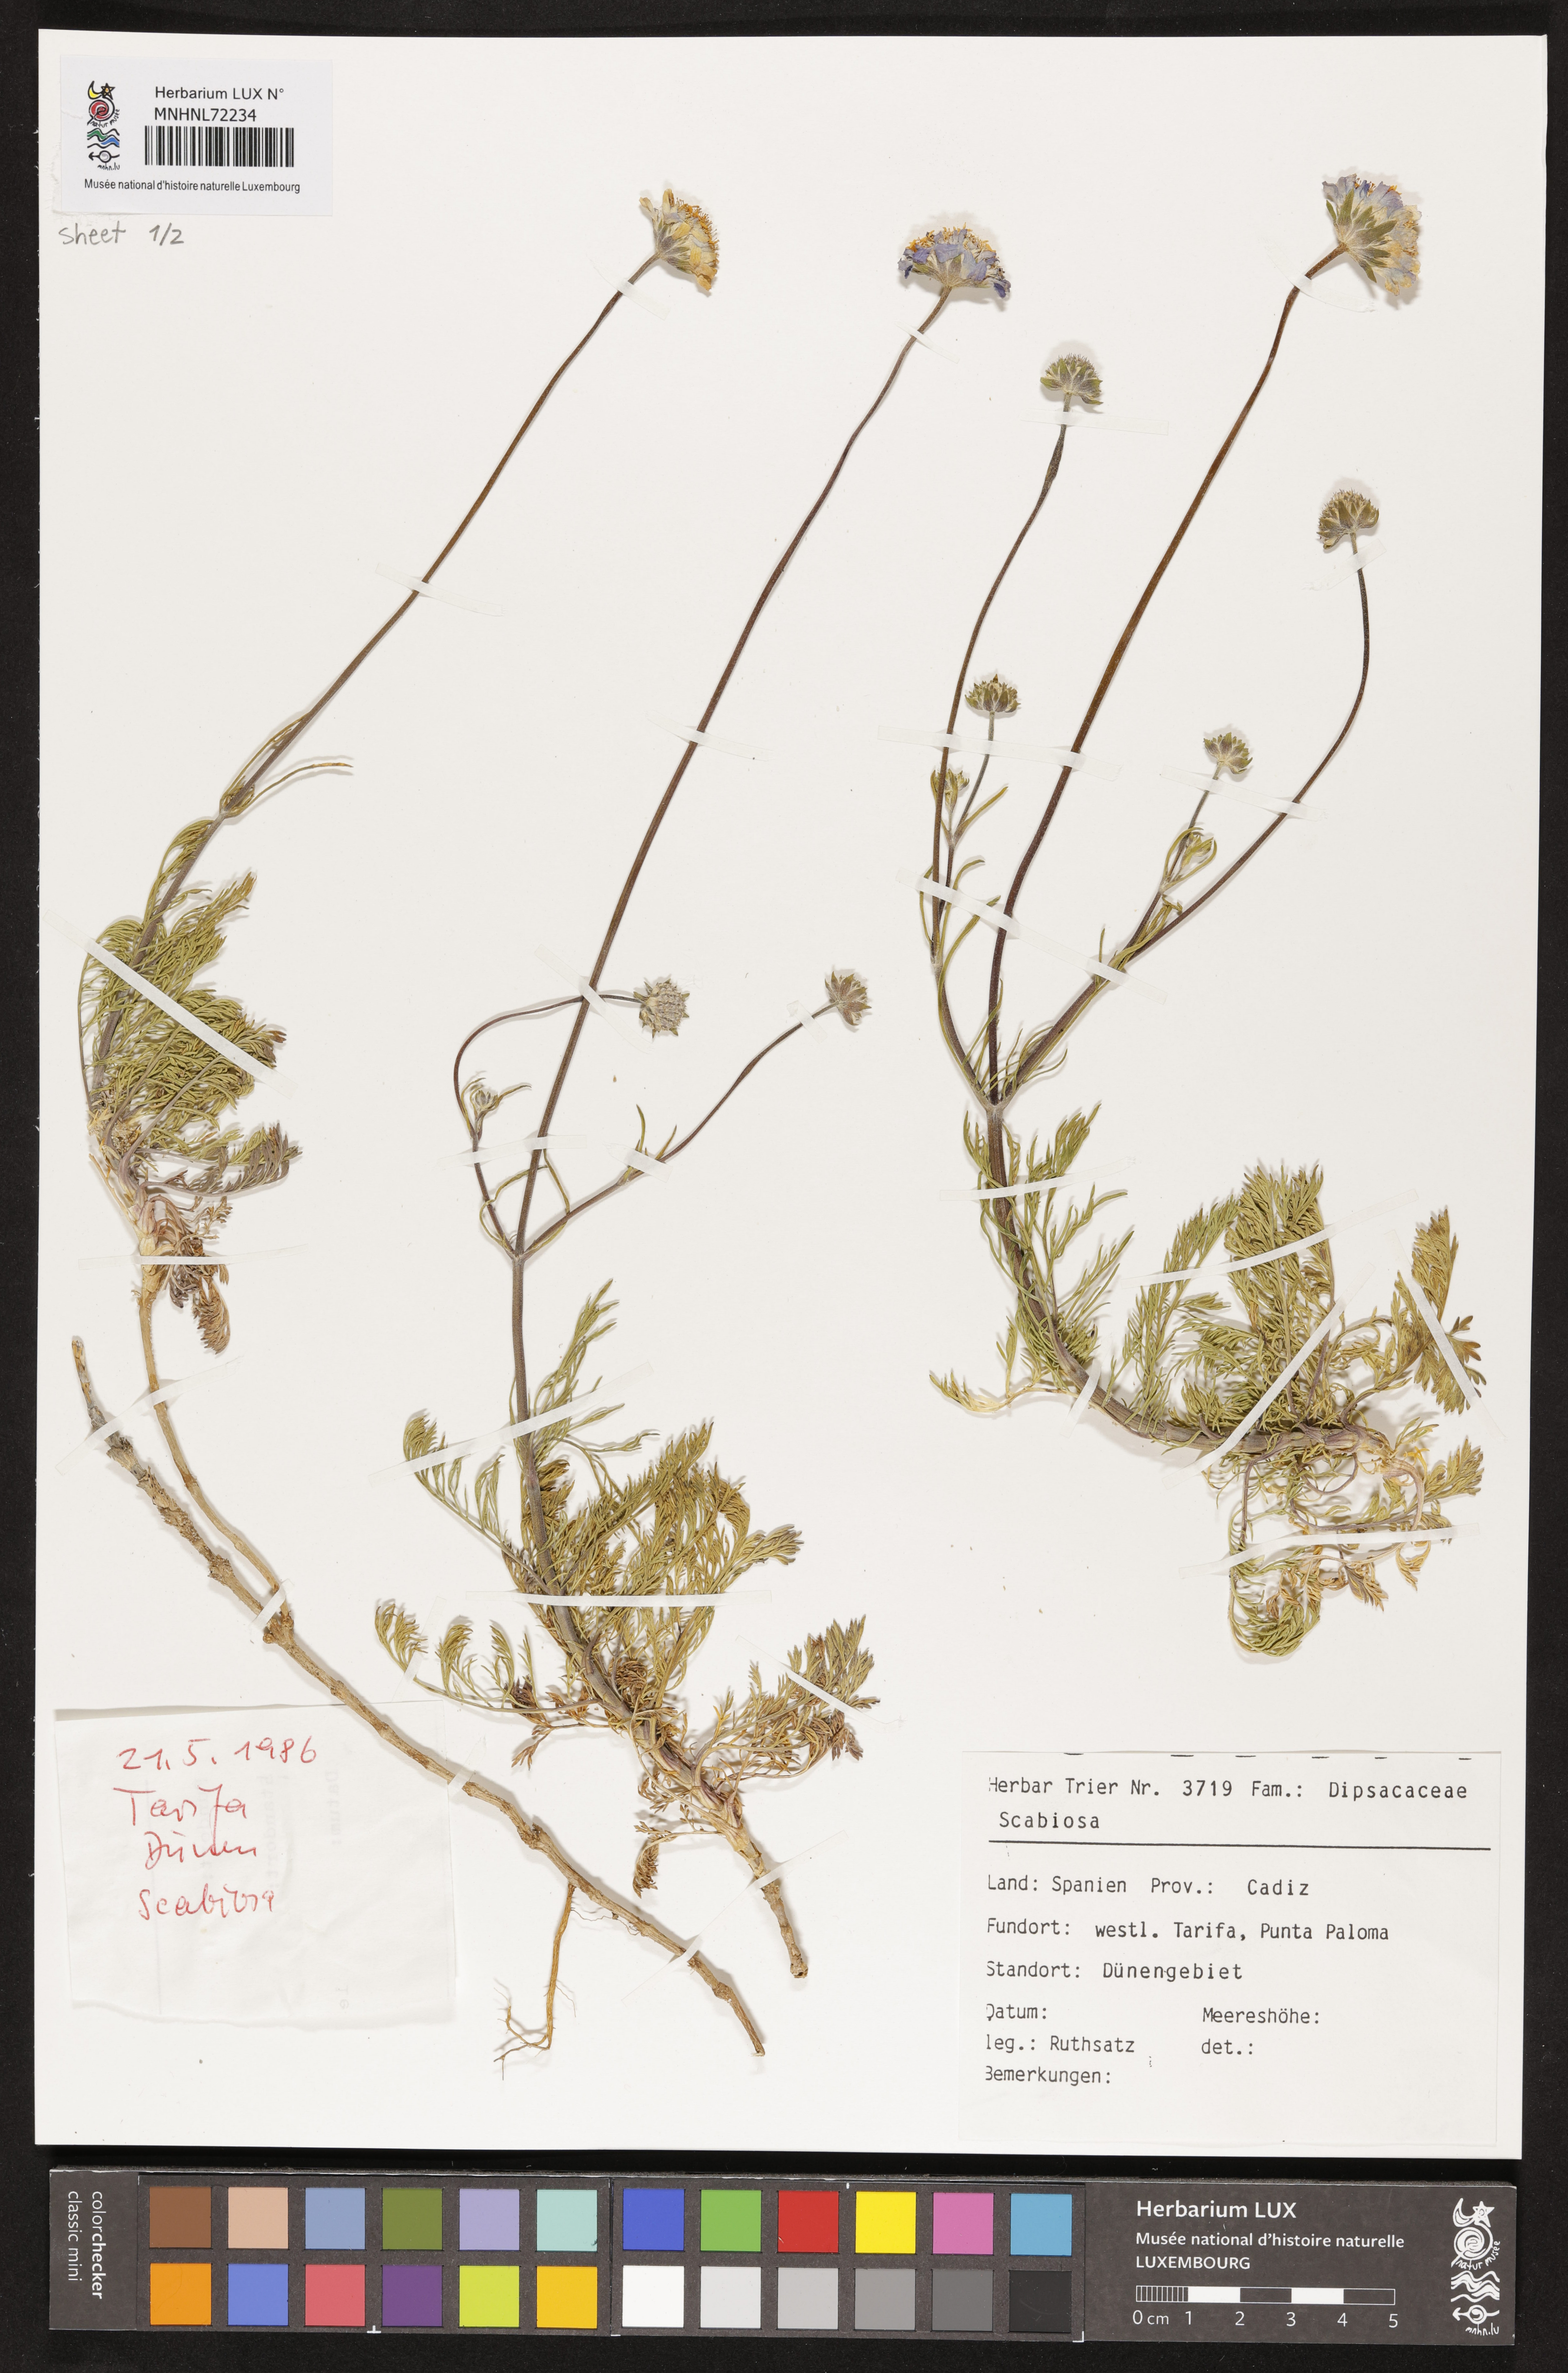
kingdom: Plantae
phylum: Tracheophyta
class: Magnoliopsida
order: Dipsacales
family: Caprifoliaceae
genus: Scabiosa
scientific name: Scabiosa
